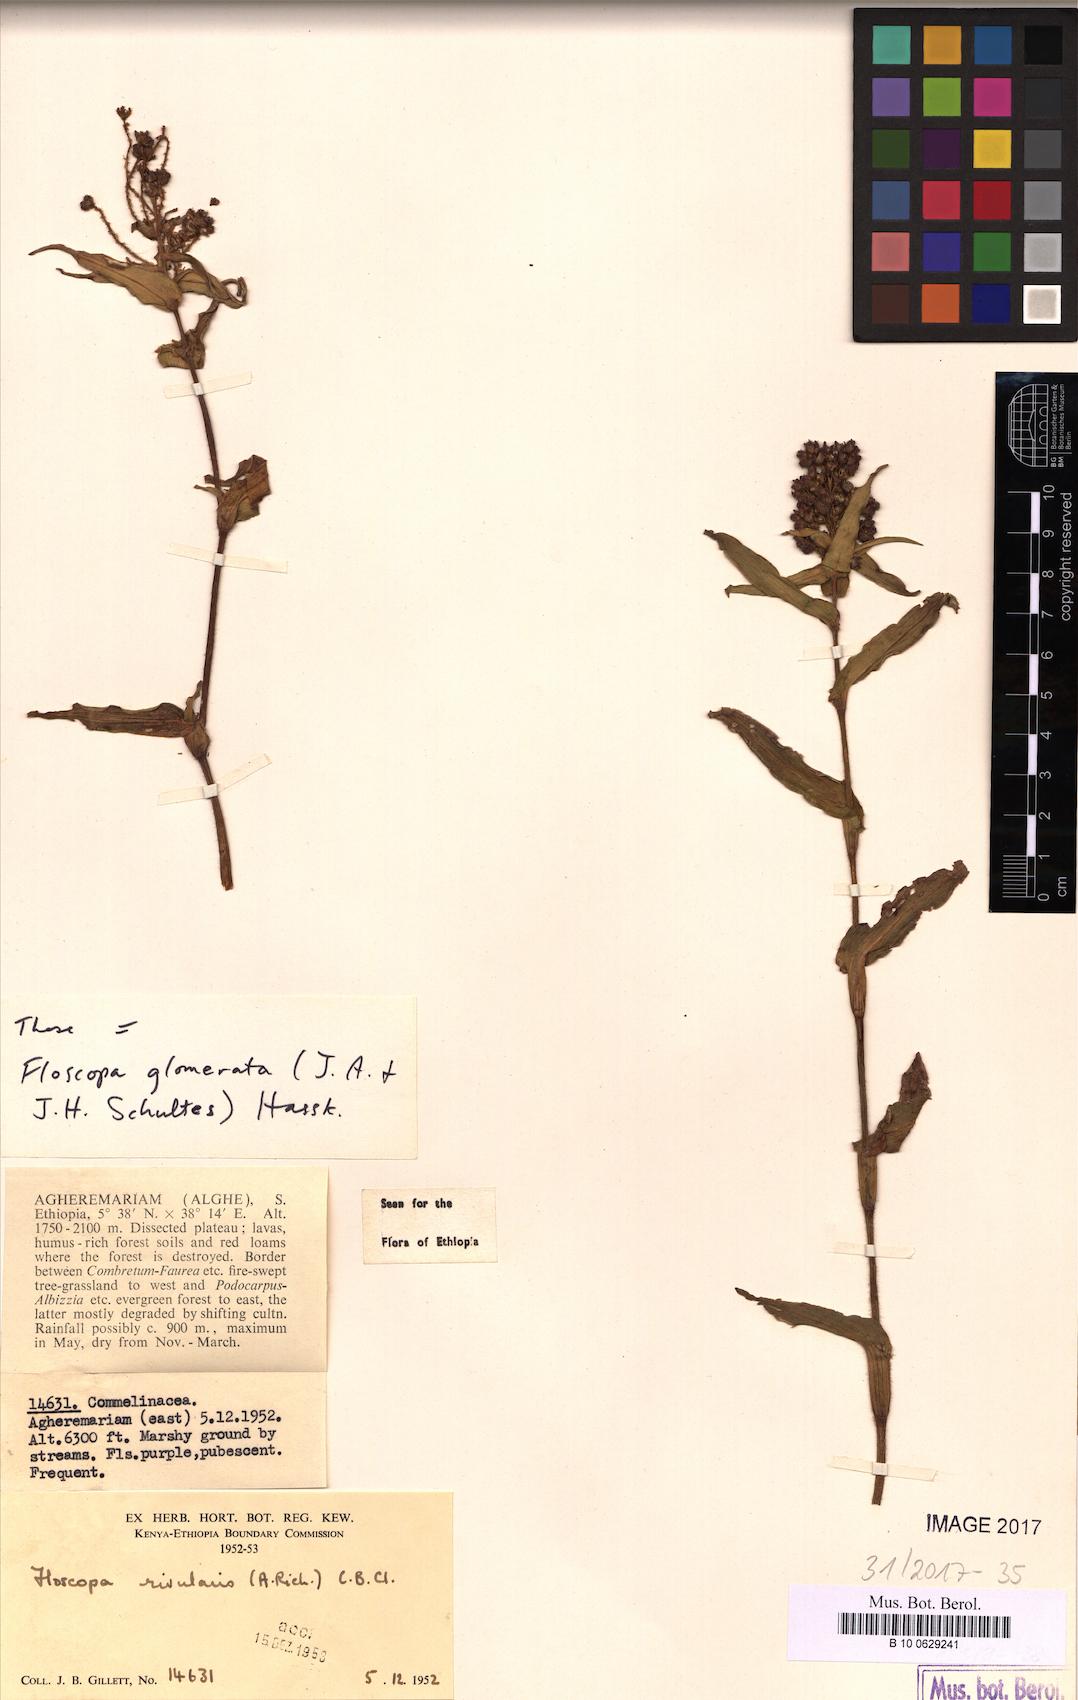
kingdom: Plantae
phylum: Tracheophyta
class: Liliopsida
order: Commelinales
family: Commelinaceae
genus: Floscopa
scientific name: Floscopa glomerata
